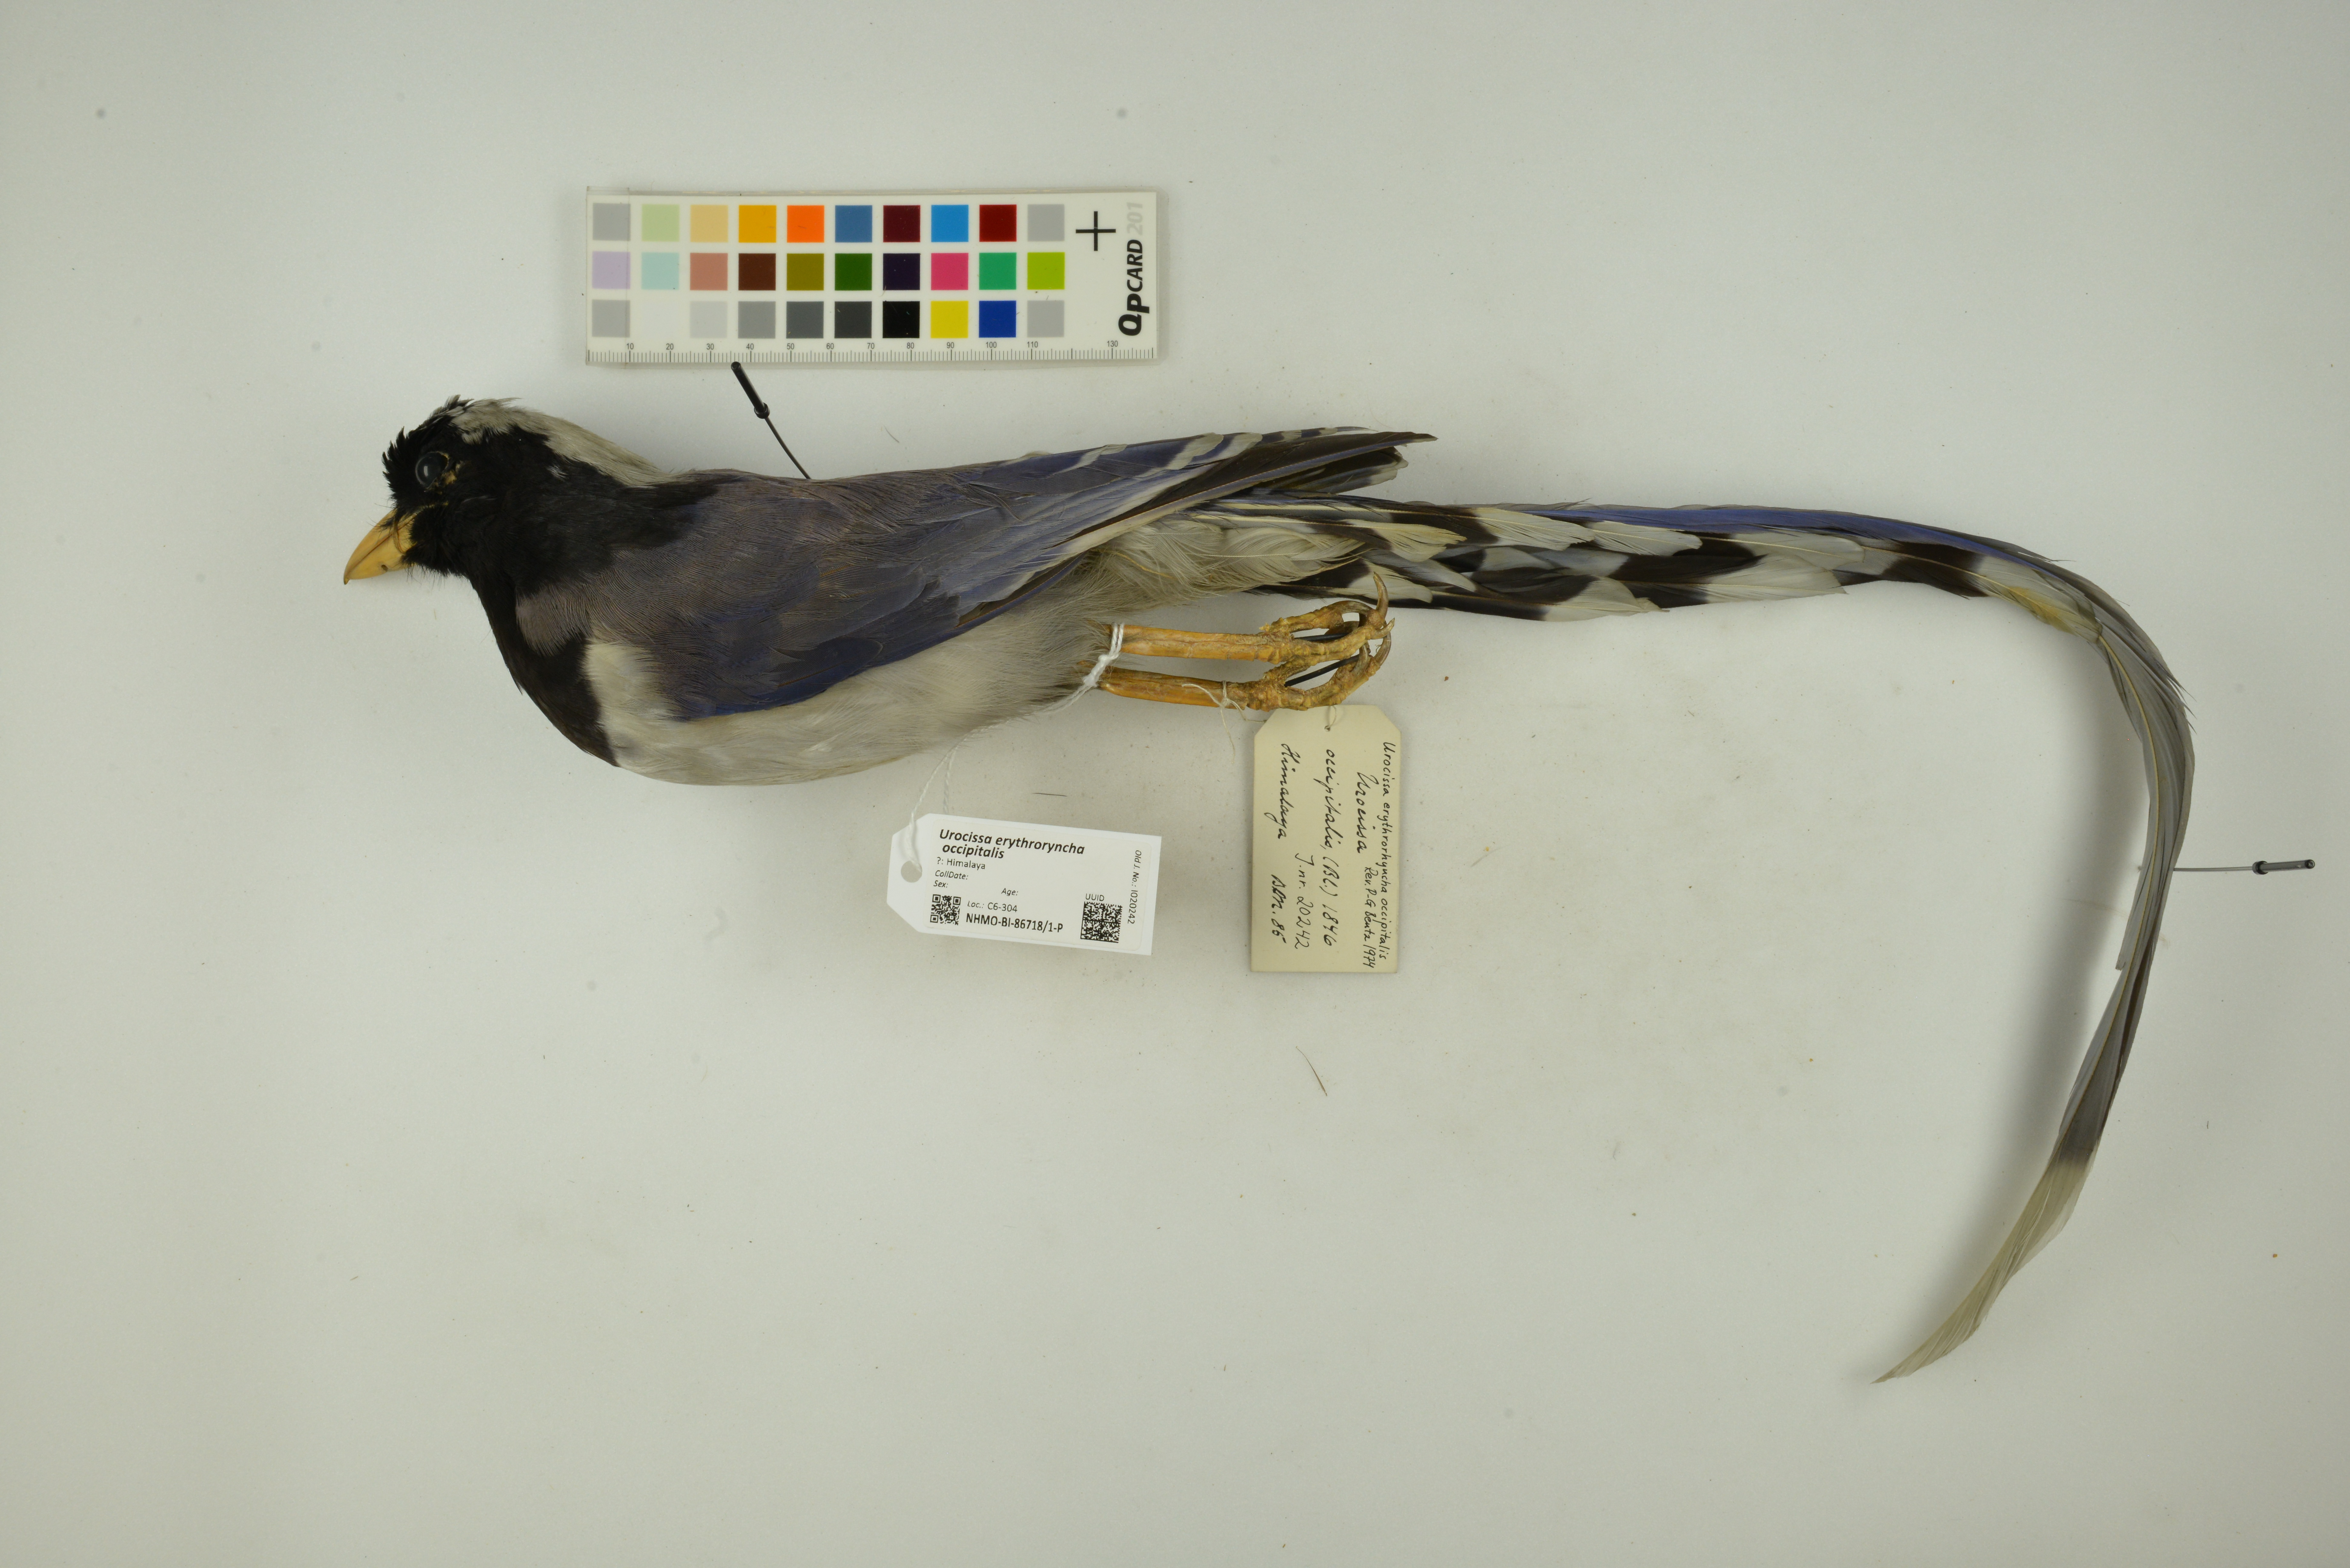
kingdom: Animalia
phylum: Chordata
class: Aves
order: Passeriformes
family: Corvidae
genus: Urocissa
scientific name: Urocissa erythroryncha
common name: Red-billed blue magpie
